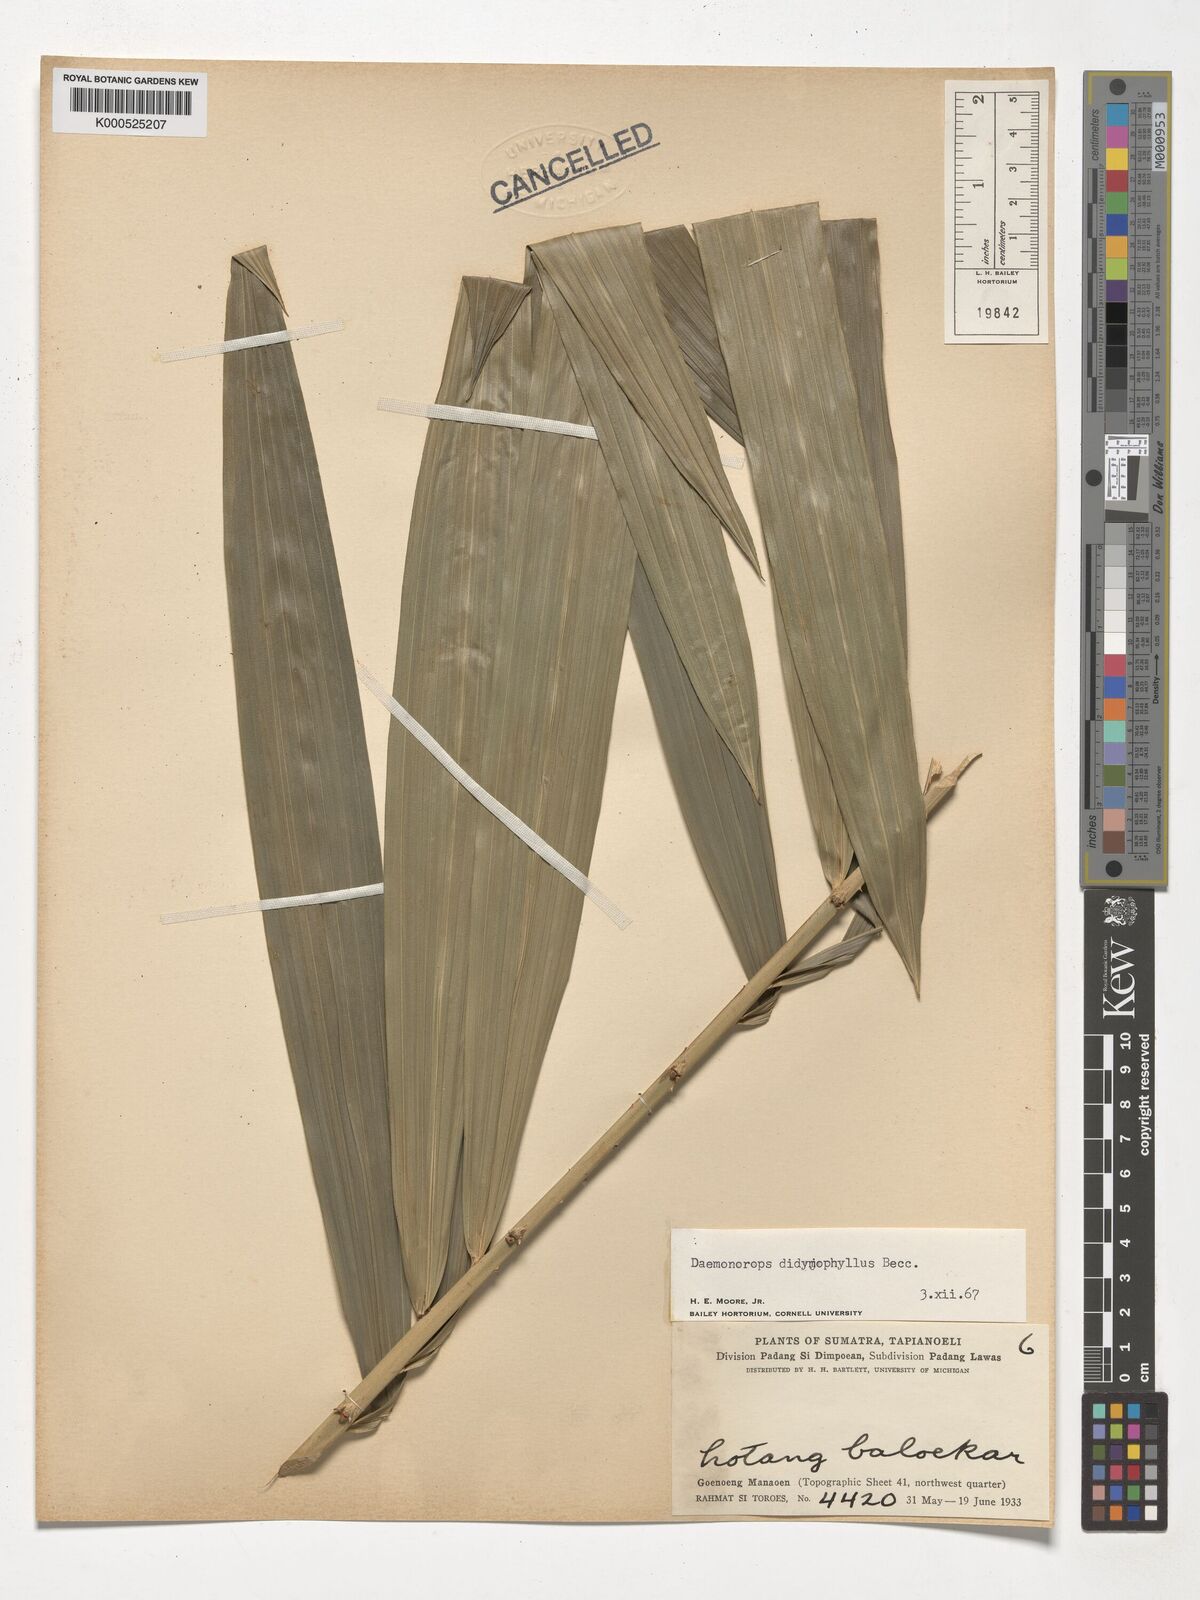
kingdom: Plantae
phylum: Tracheophyta
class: Liliopsida
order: Arecales
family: Arecaceae
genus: Calamus
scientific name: Calamus gracilipes
